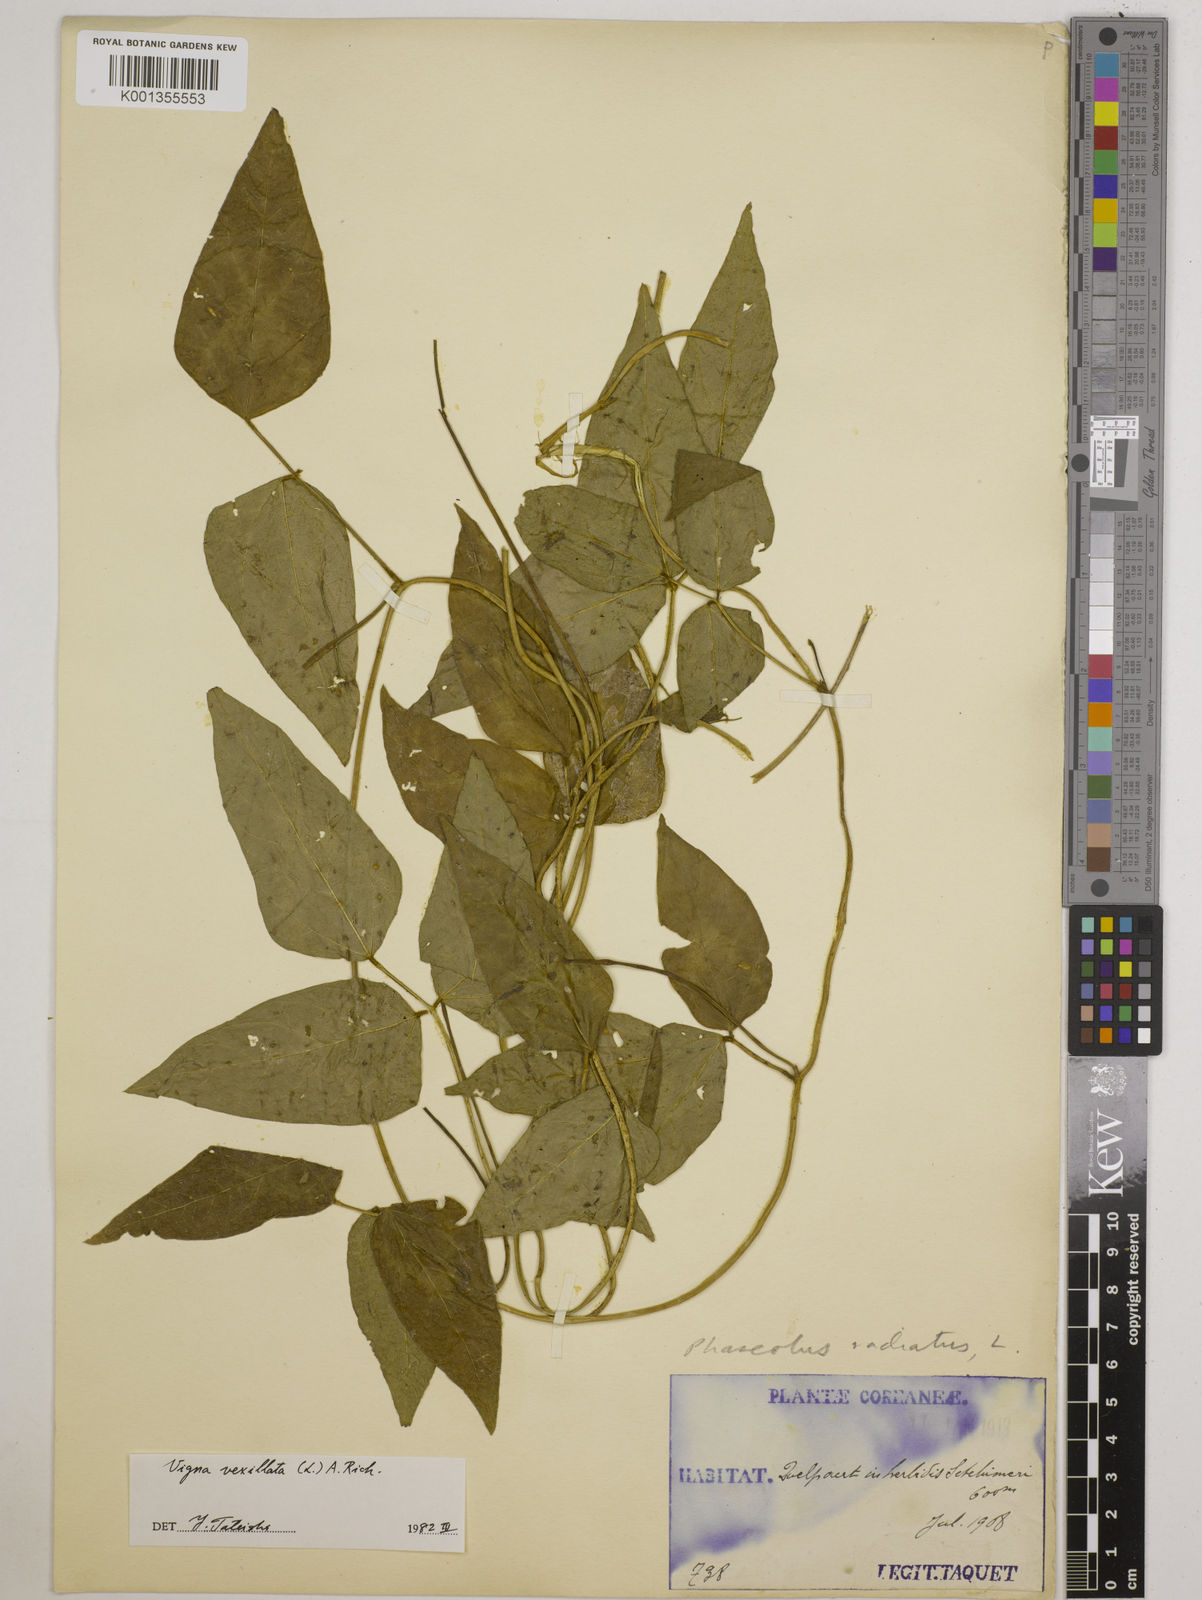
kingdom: Plantae
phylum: Tracheophyta
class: Magnoliopsida
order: Fabales
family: Fabaceae
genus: Vigna
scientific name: Vigna vexillata
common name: Zombi pea
